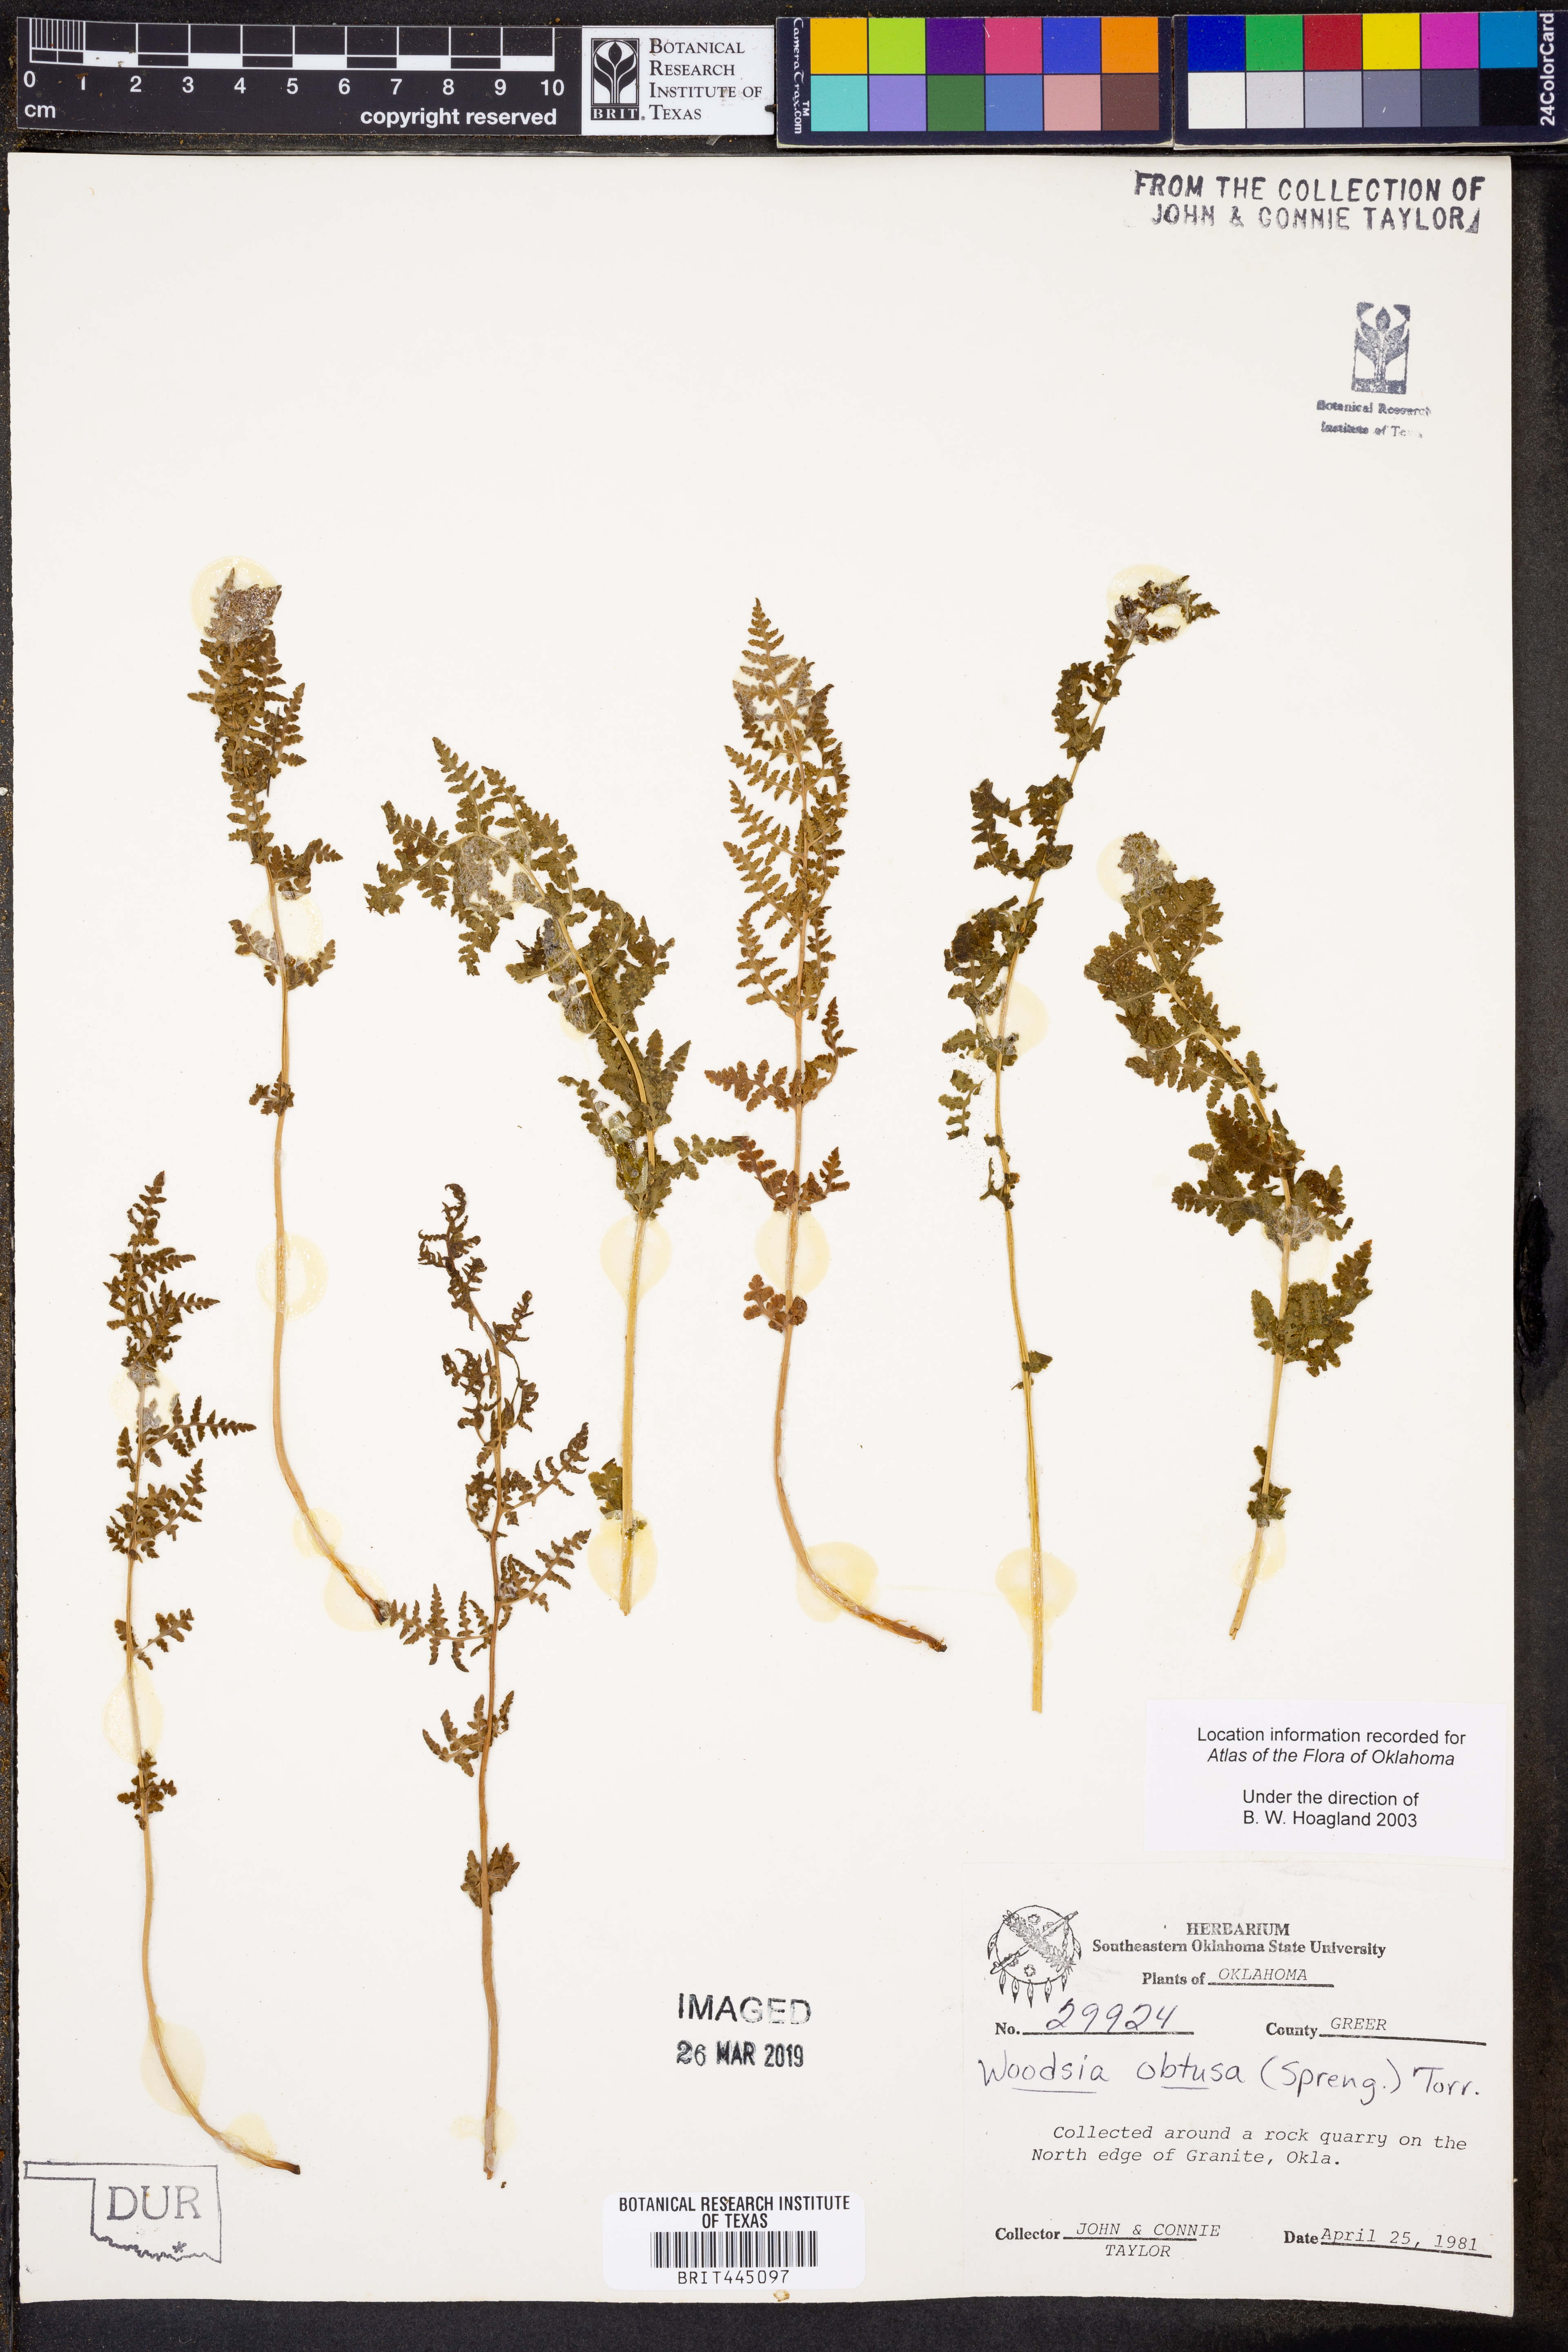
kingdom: Plantae
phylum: Tracheophyta
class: Polypodiopsida
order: Polypodiales
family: Woodsiaceae
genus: Physematium
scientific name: Physematium obtusum
